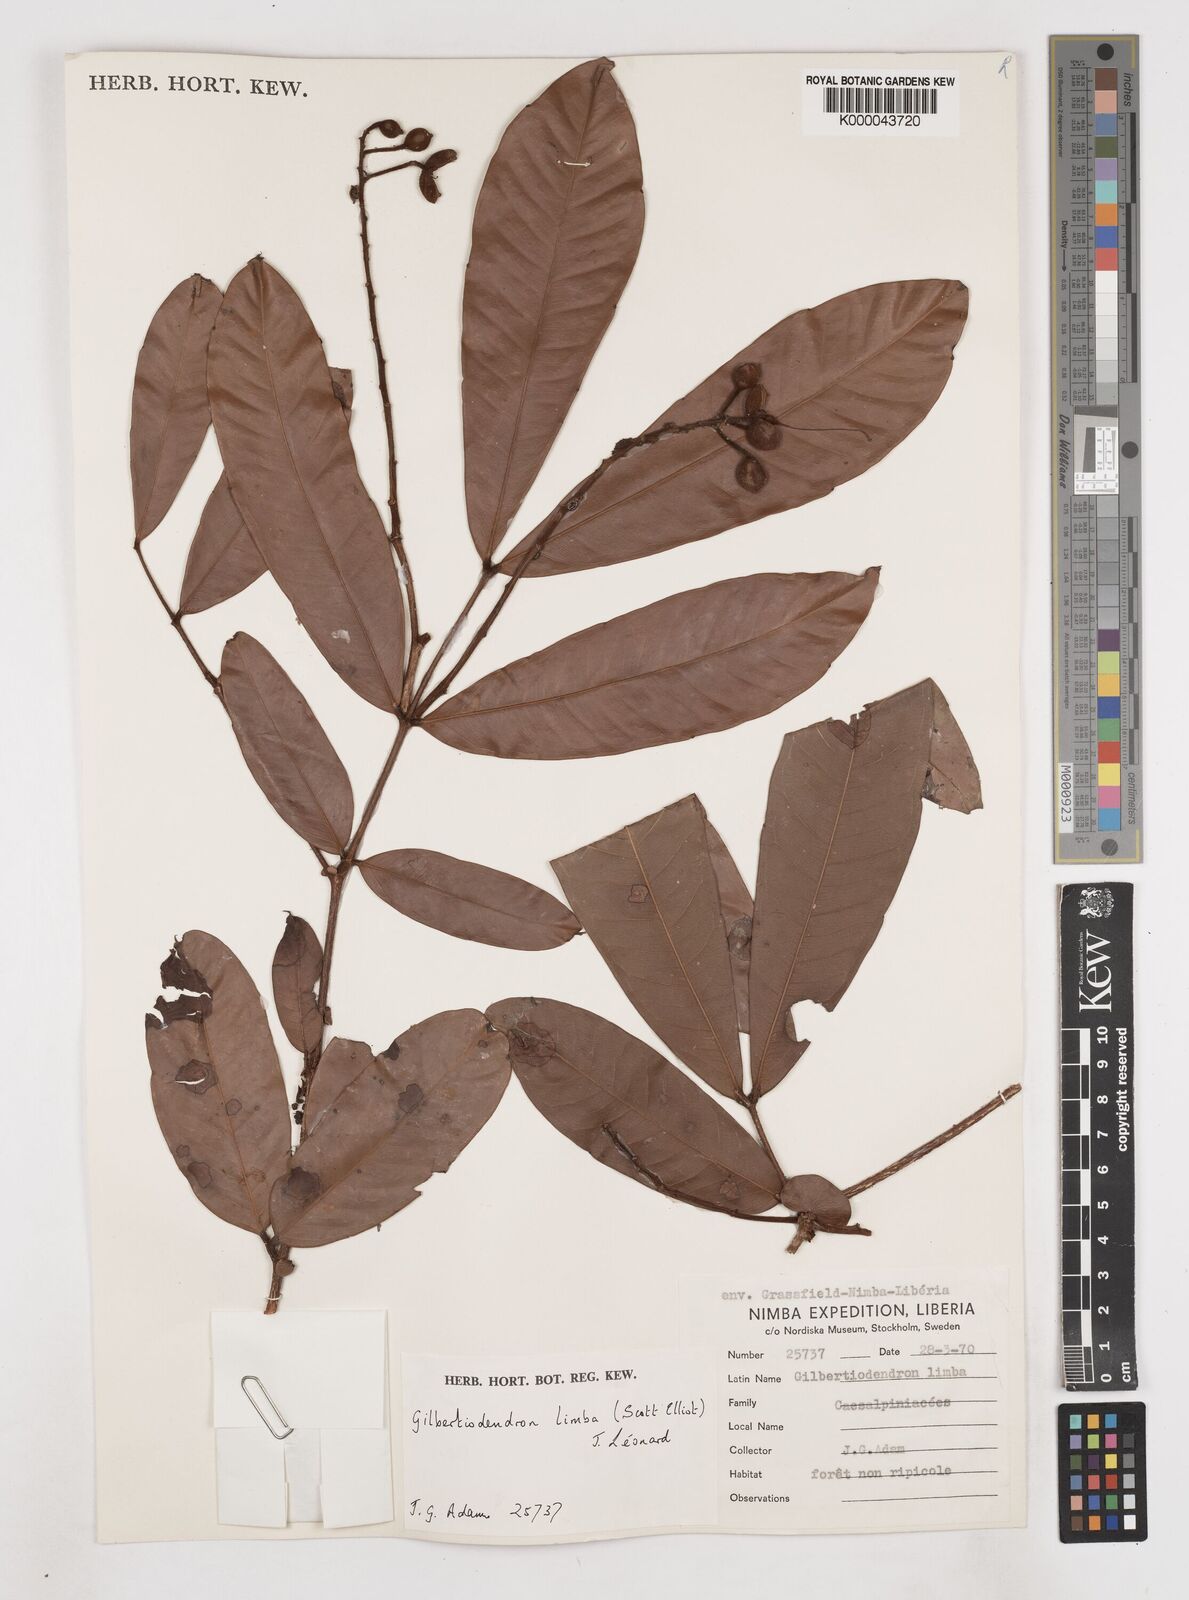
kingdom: Plantae
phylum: Tracheophyta
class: Magnoliopsida
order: Fabales
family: Fabaceae
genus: Gilbertiodendron
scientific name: Gilbertiodendron
